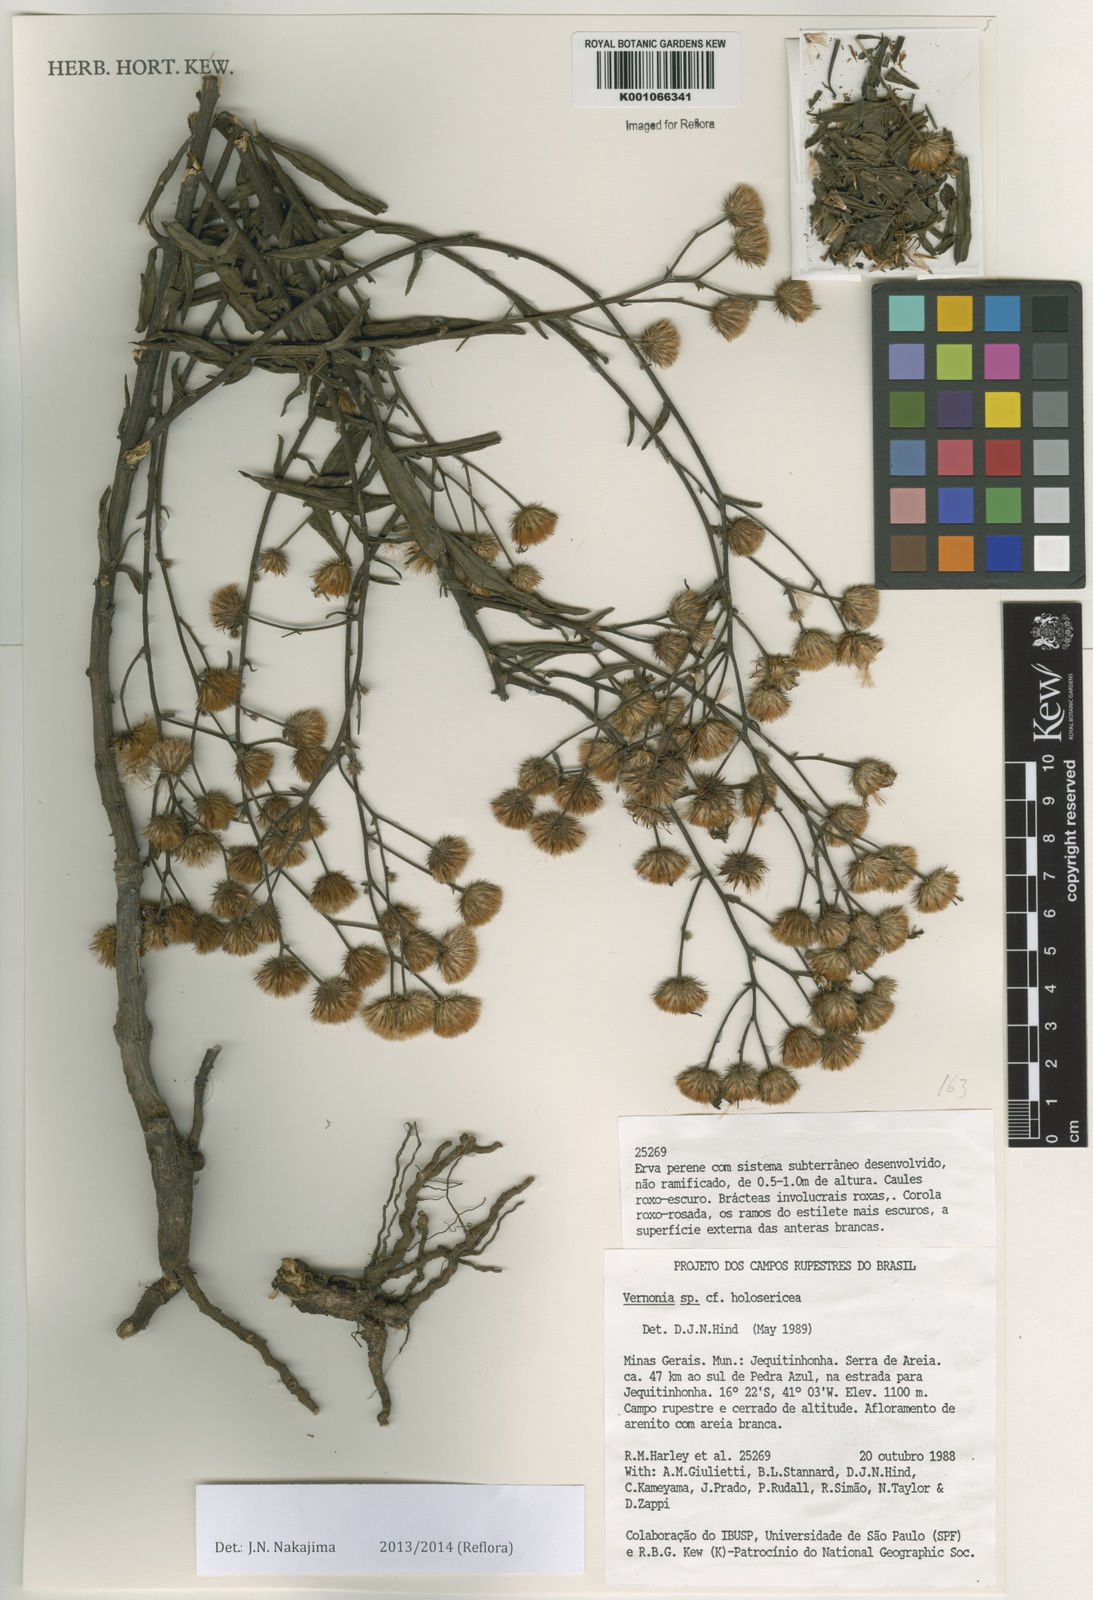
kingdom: Plantae
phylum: Tracheophyta
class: Magnoliopsida
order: Asterales
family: Asteraceae
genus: Echinocoryne
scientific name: Echinocoryne holosericea
